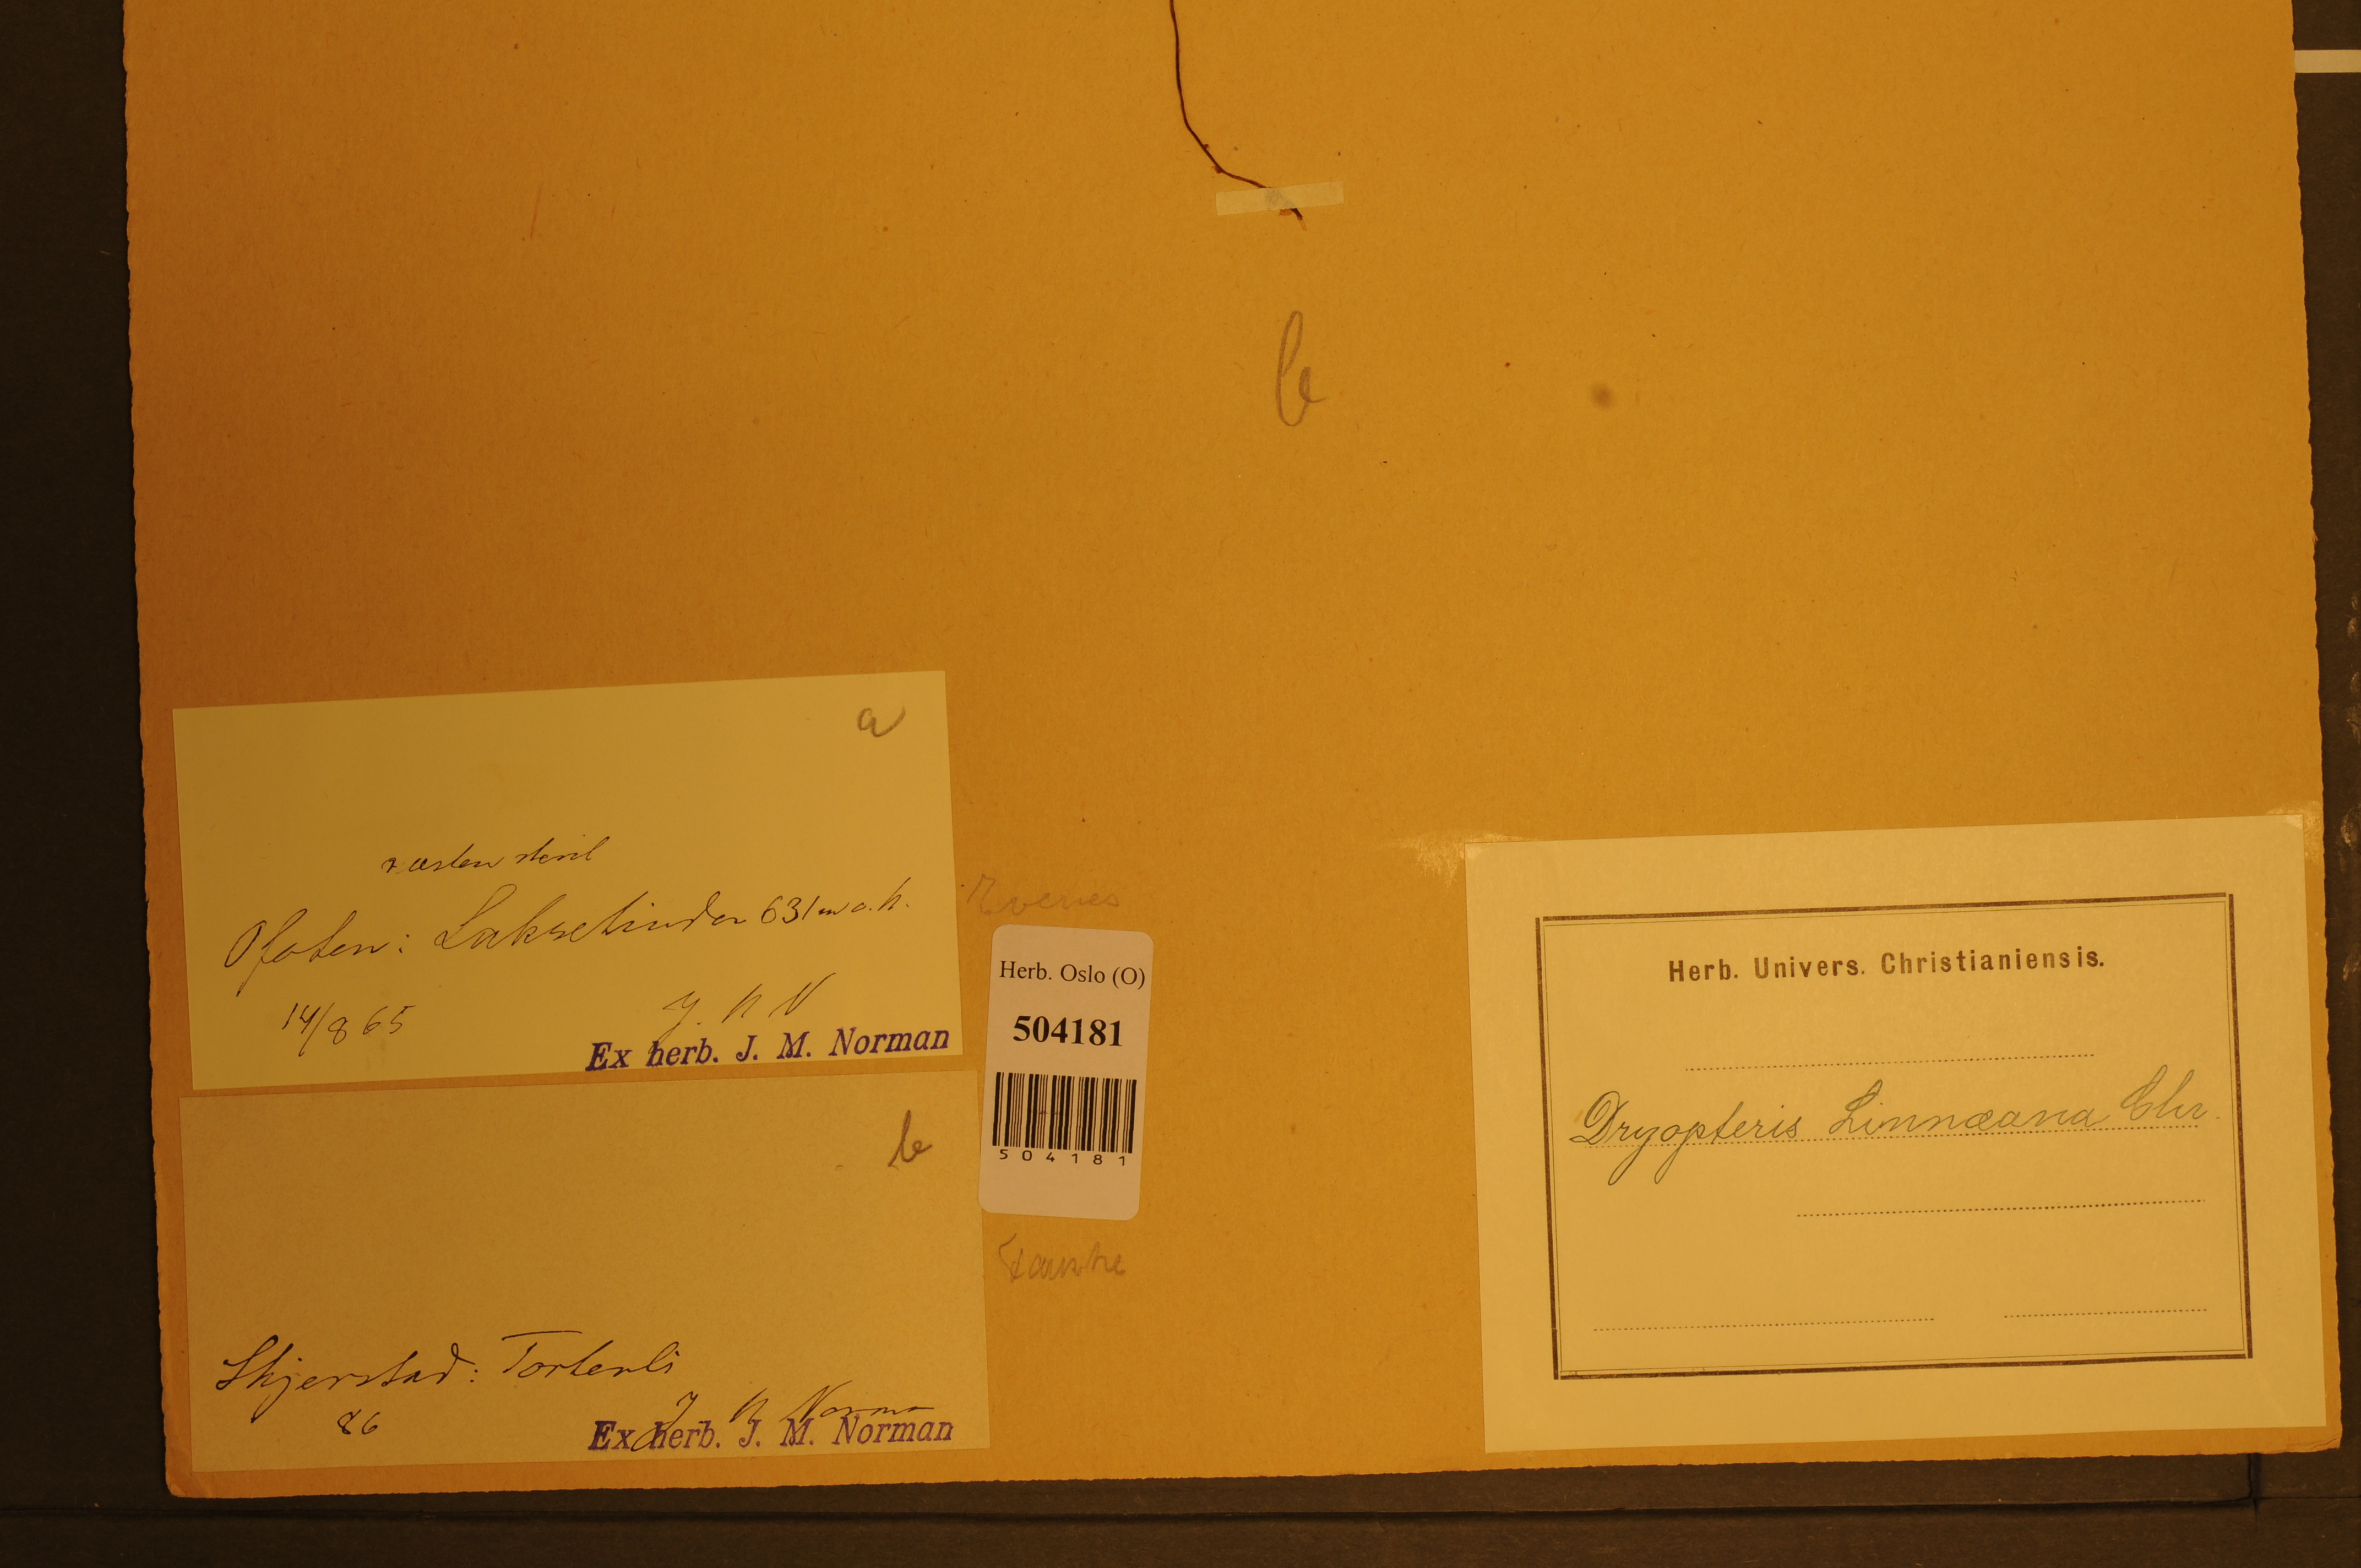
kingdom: Plantae
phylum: Tracheophyta
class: Polypodiopsida
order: Polypodiales
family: Cystopteridaceae
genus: Gymnocarpium
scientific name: Gymnocarpium dryopteris
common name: Oak fern
